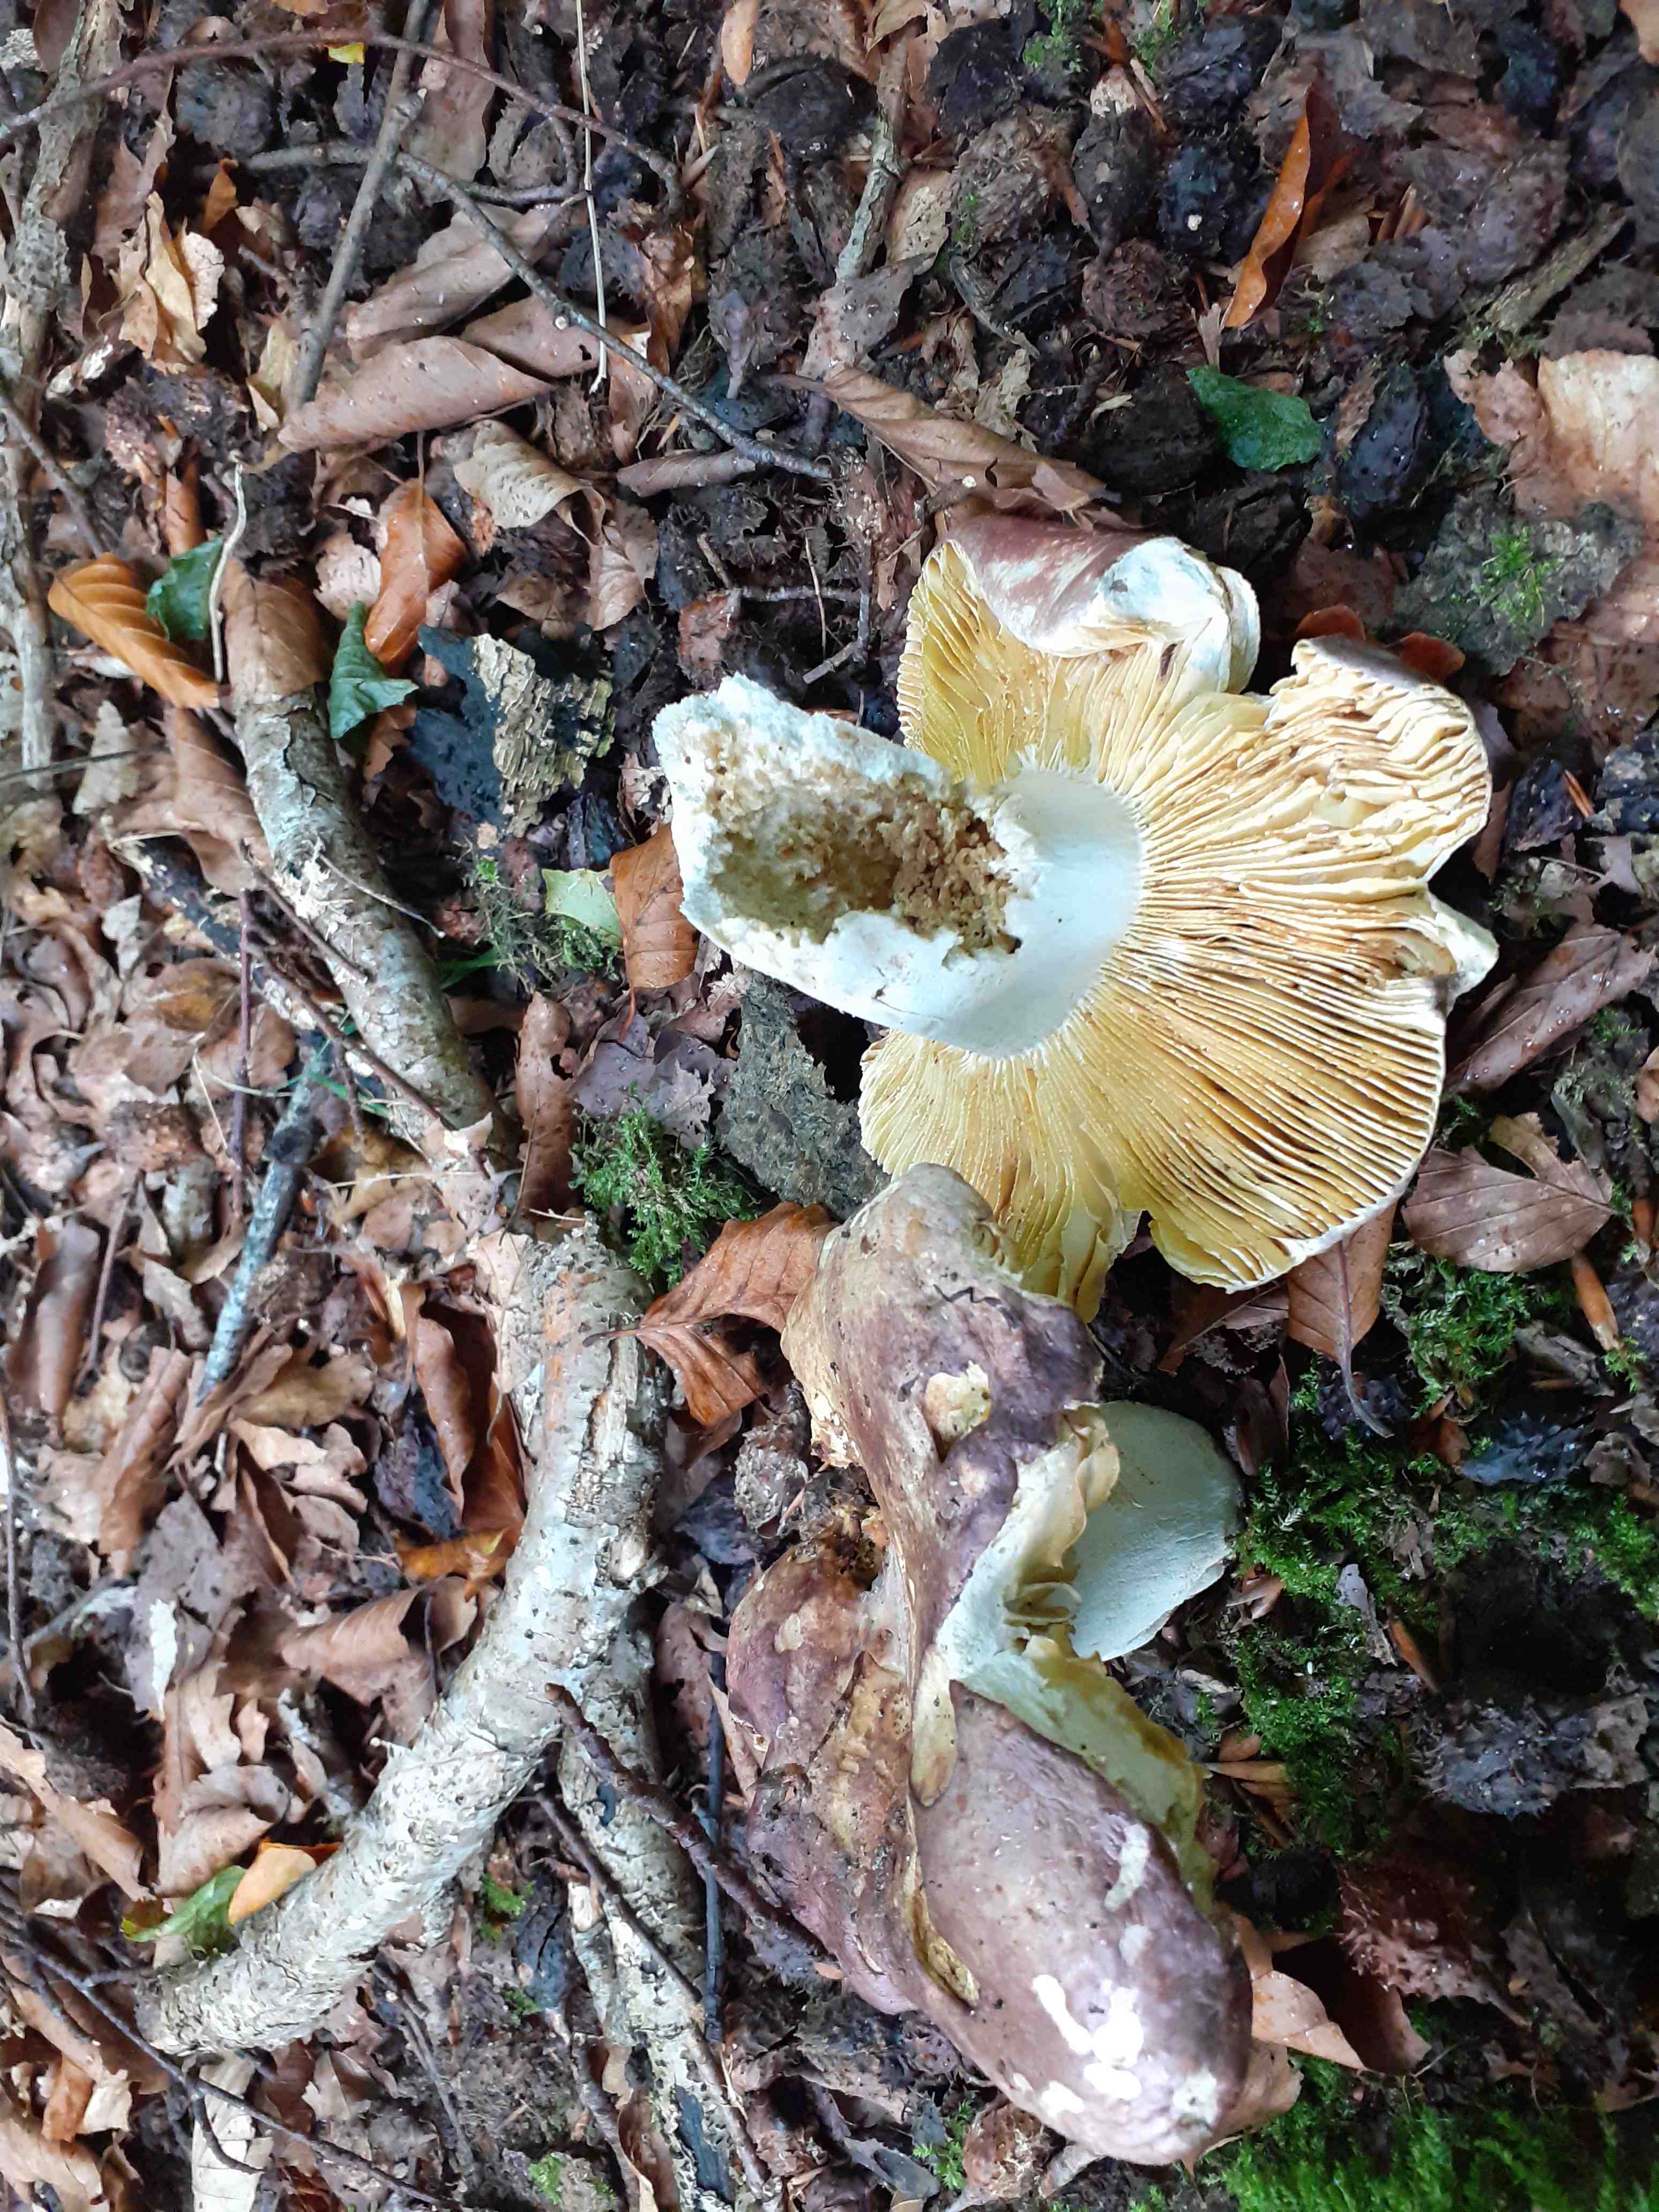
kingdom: Fungi
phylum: Basidiomycota
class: Agaricomycetes
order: Russulales
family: Russulaceae
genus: Russula
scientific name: Russula romellii
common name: romells skørhat
